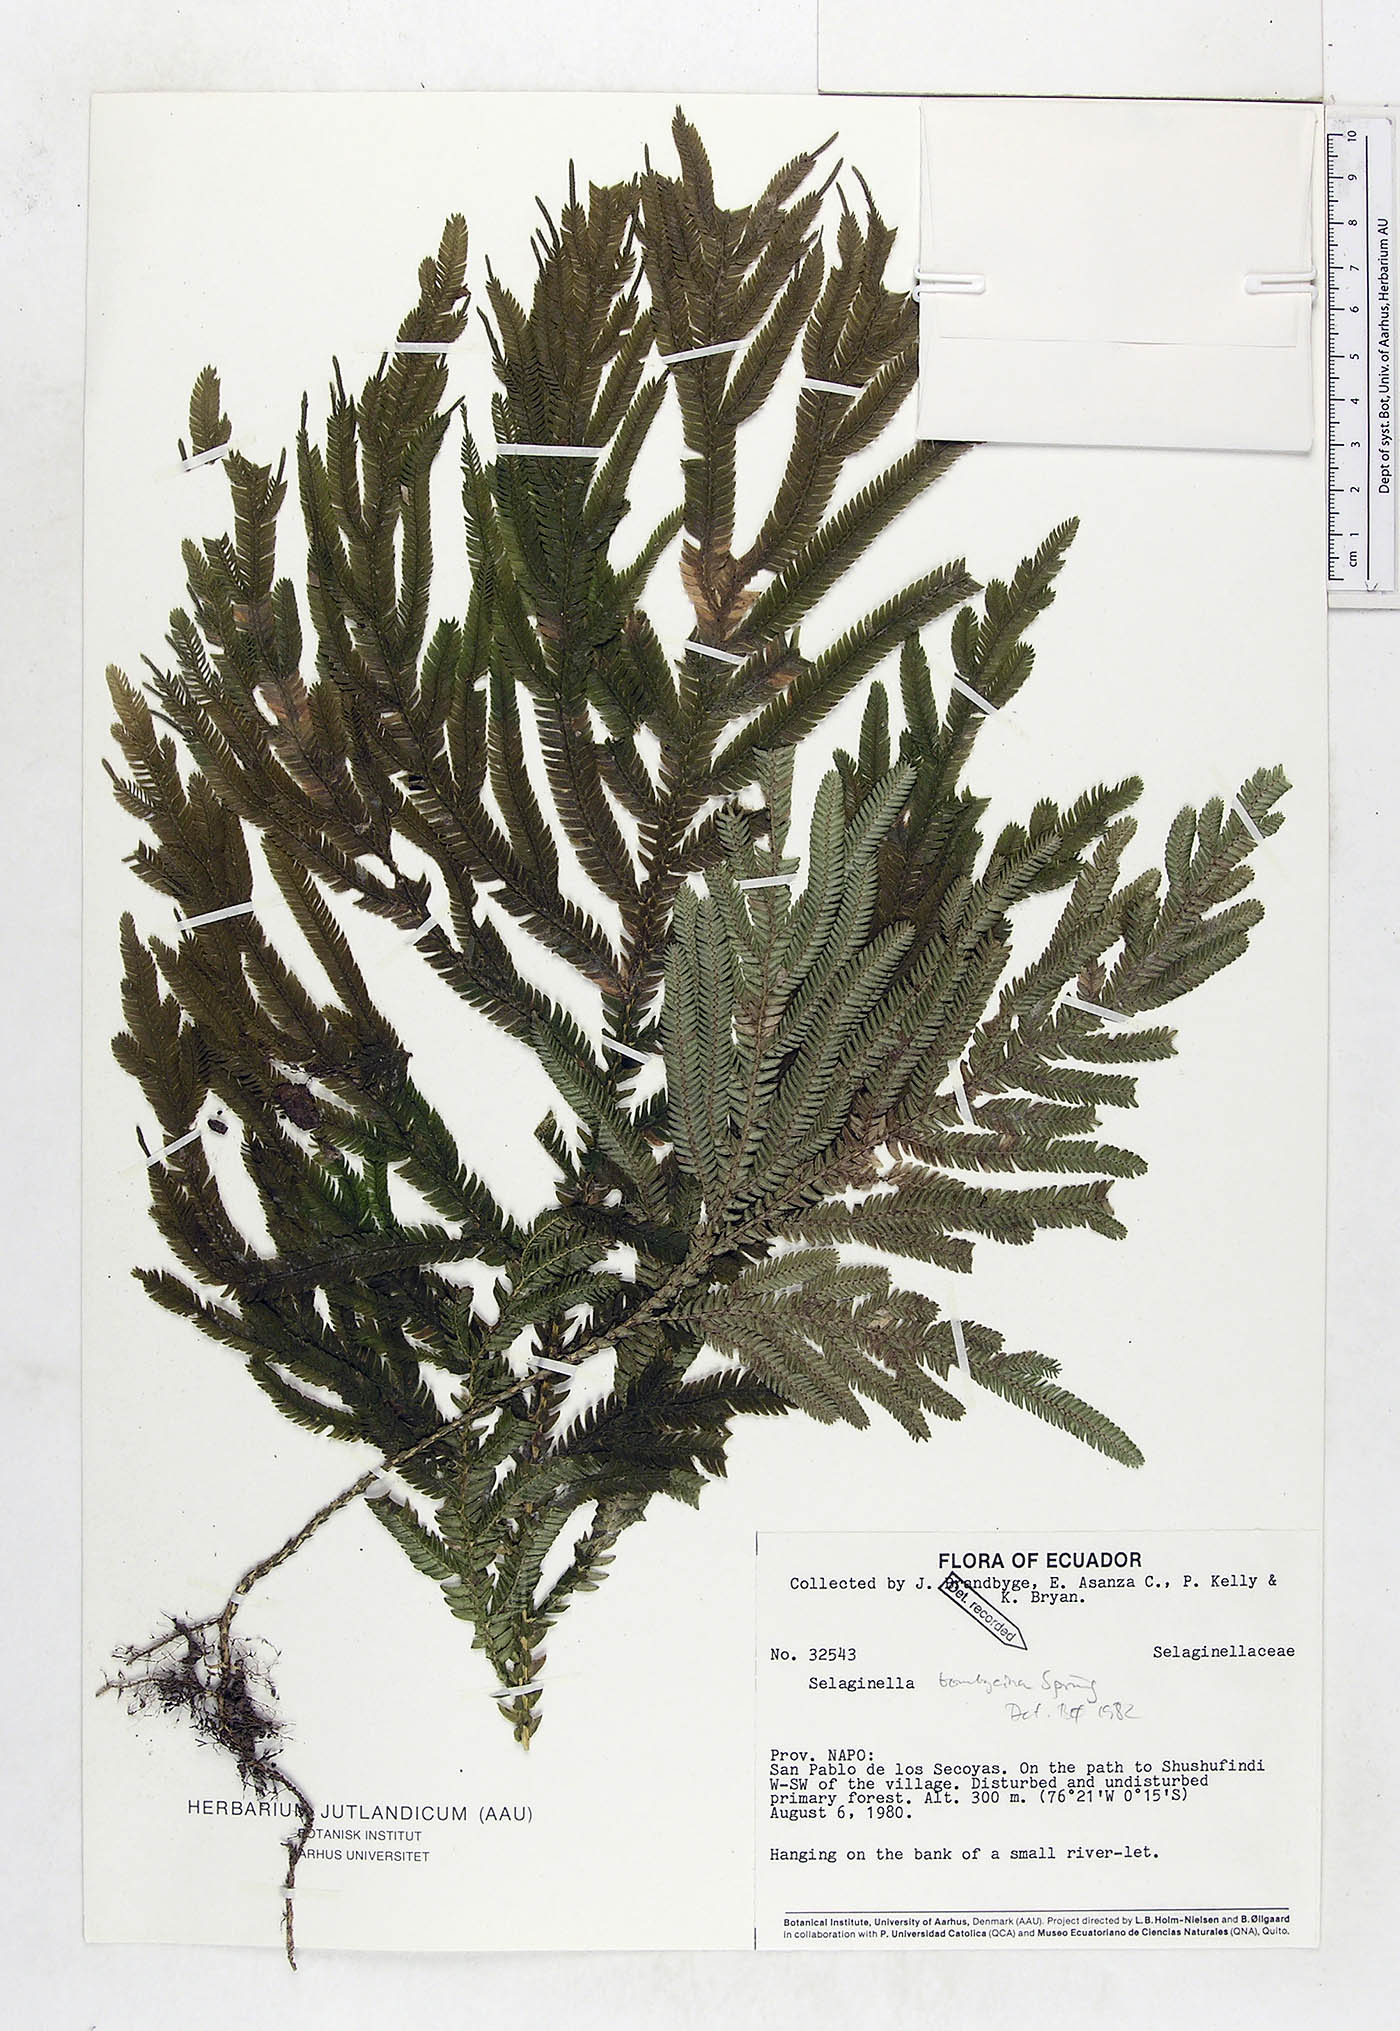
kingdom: Plantae
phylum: Tracheophyta
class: Lycopodiopsida
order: Selaginellales
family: Selaginellaceae
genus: Selaginella
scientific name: Selaginella bombycina
